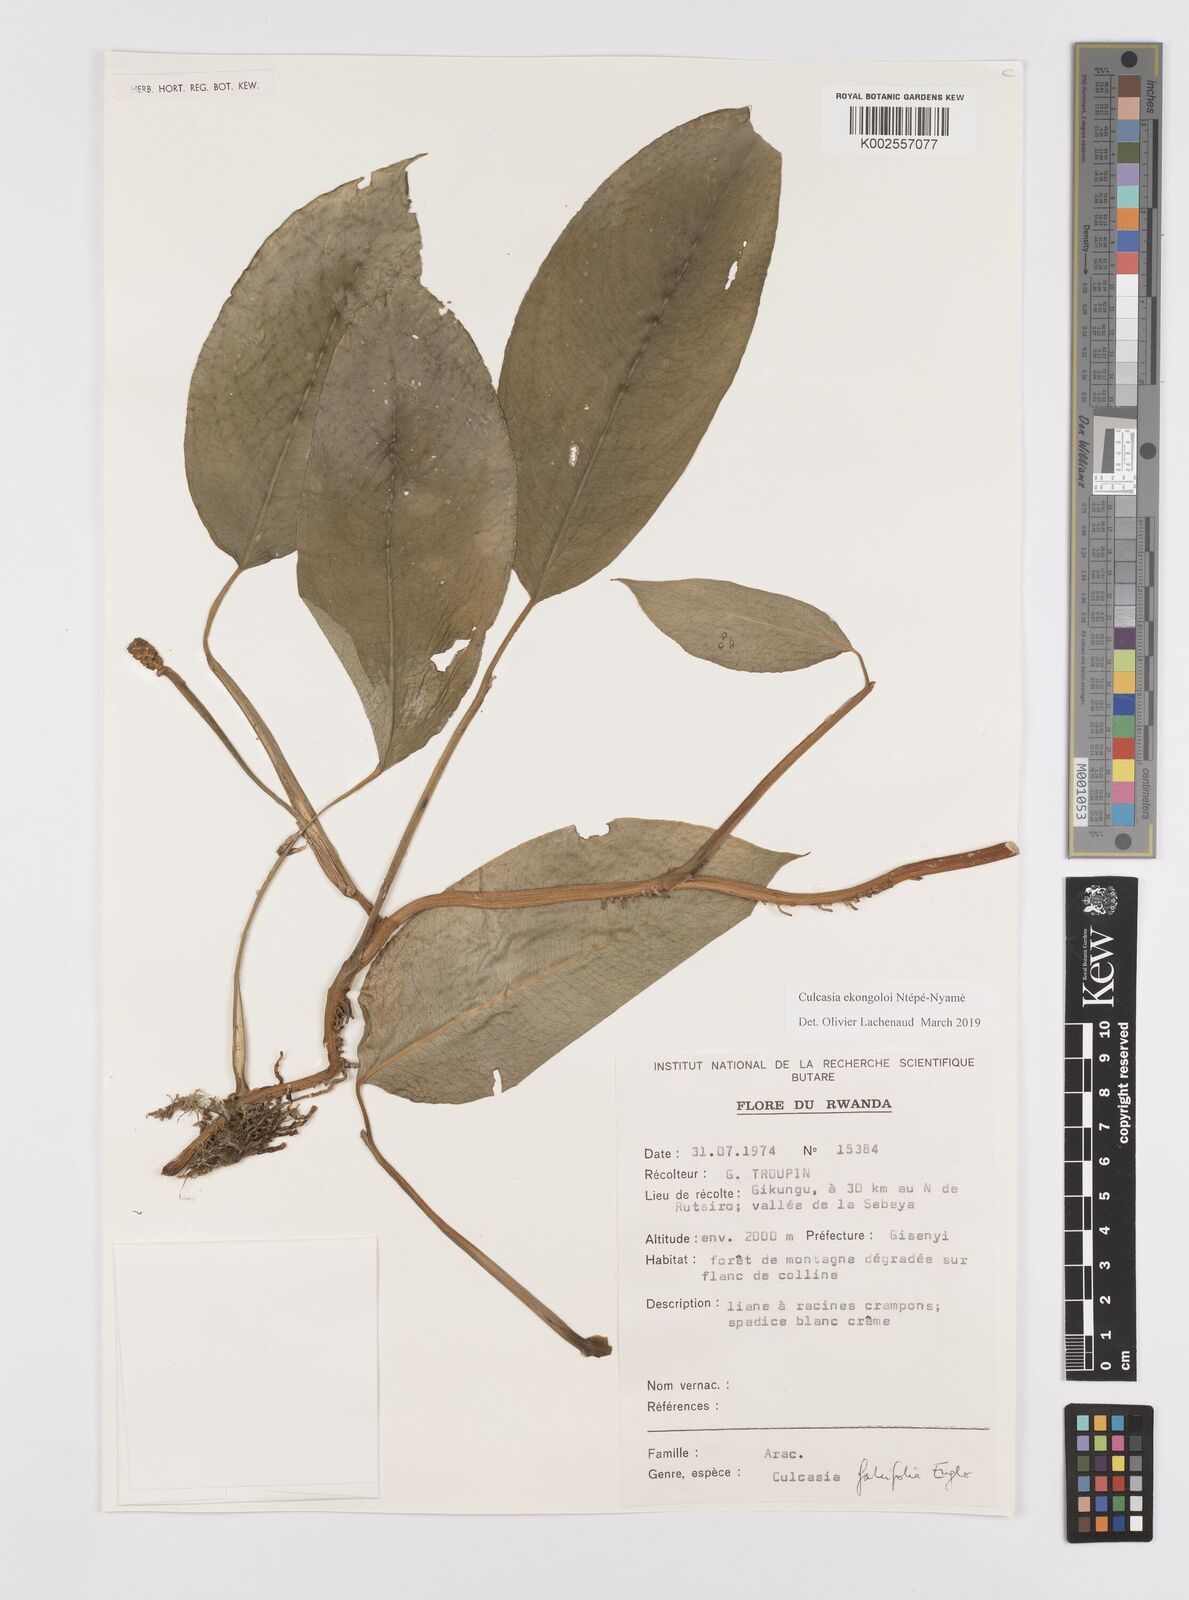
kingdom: Plantae
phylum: Tracheophyta
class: Liliopsida
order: Alismatales
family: Araceae
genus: Culcasia
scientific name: Culcasia ekongoloi
